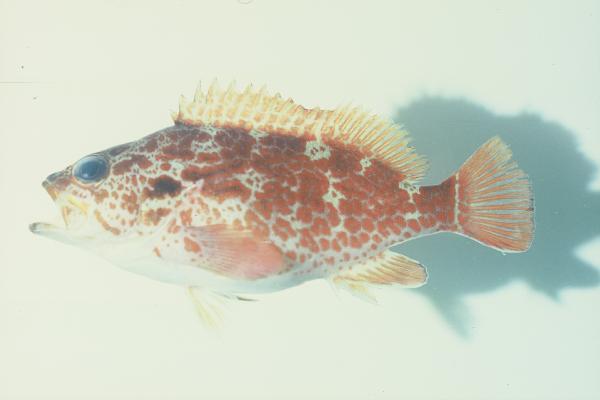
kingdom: Animalia
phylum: Chordata
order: Perciformes
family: Serranidae
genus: Acanthistius
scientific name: Acanthistius joanae
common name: Scalyjaw koester
